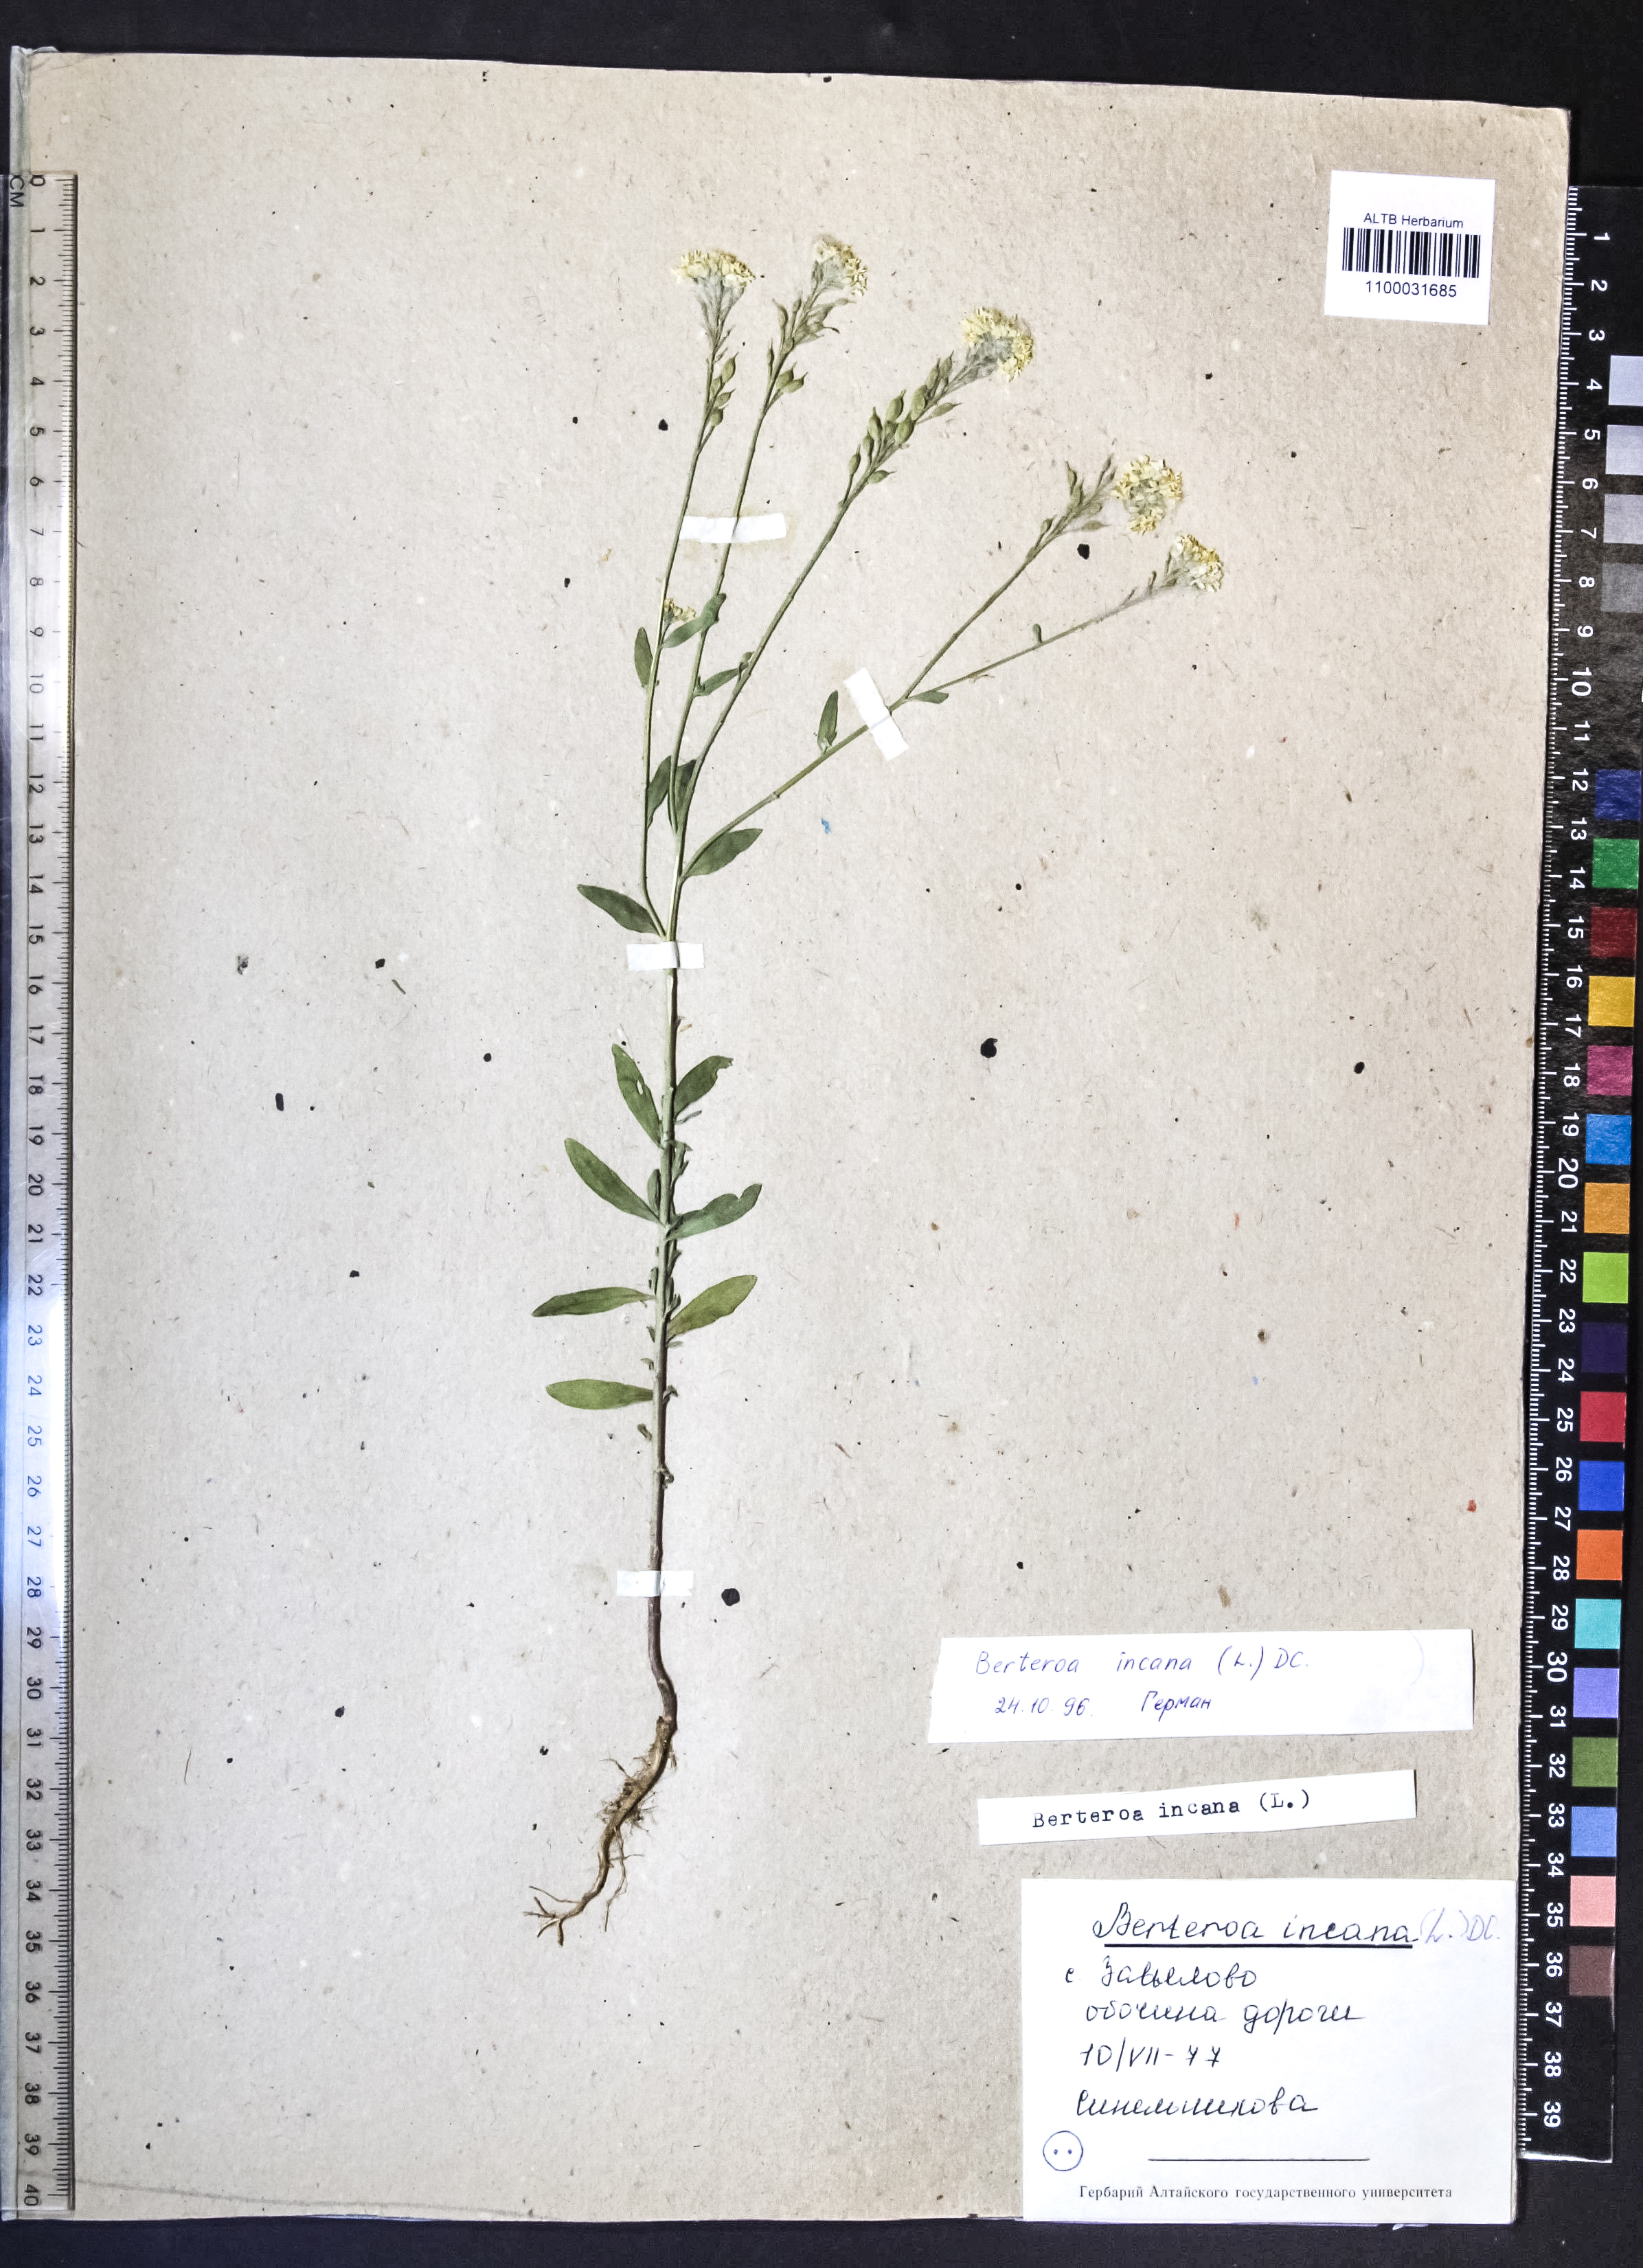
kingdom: Plantae
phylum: Tracheophyta
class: Magnoliopsida
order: Brassicales
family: Brassicaceae
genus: Berteroa
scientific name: Berteroa incana
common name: Hoary alison
